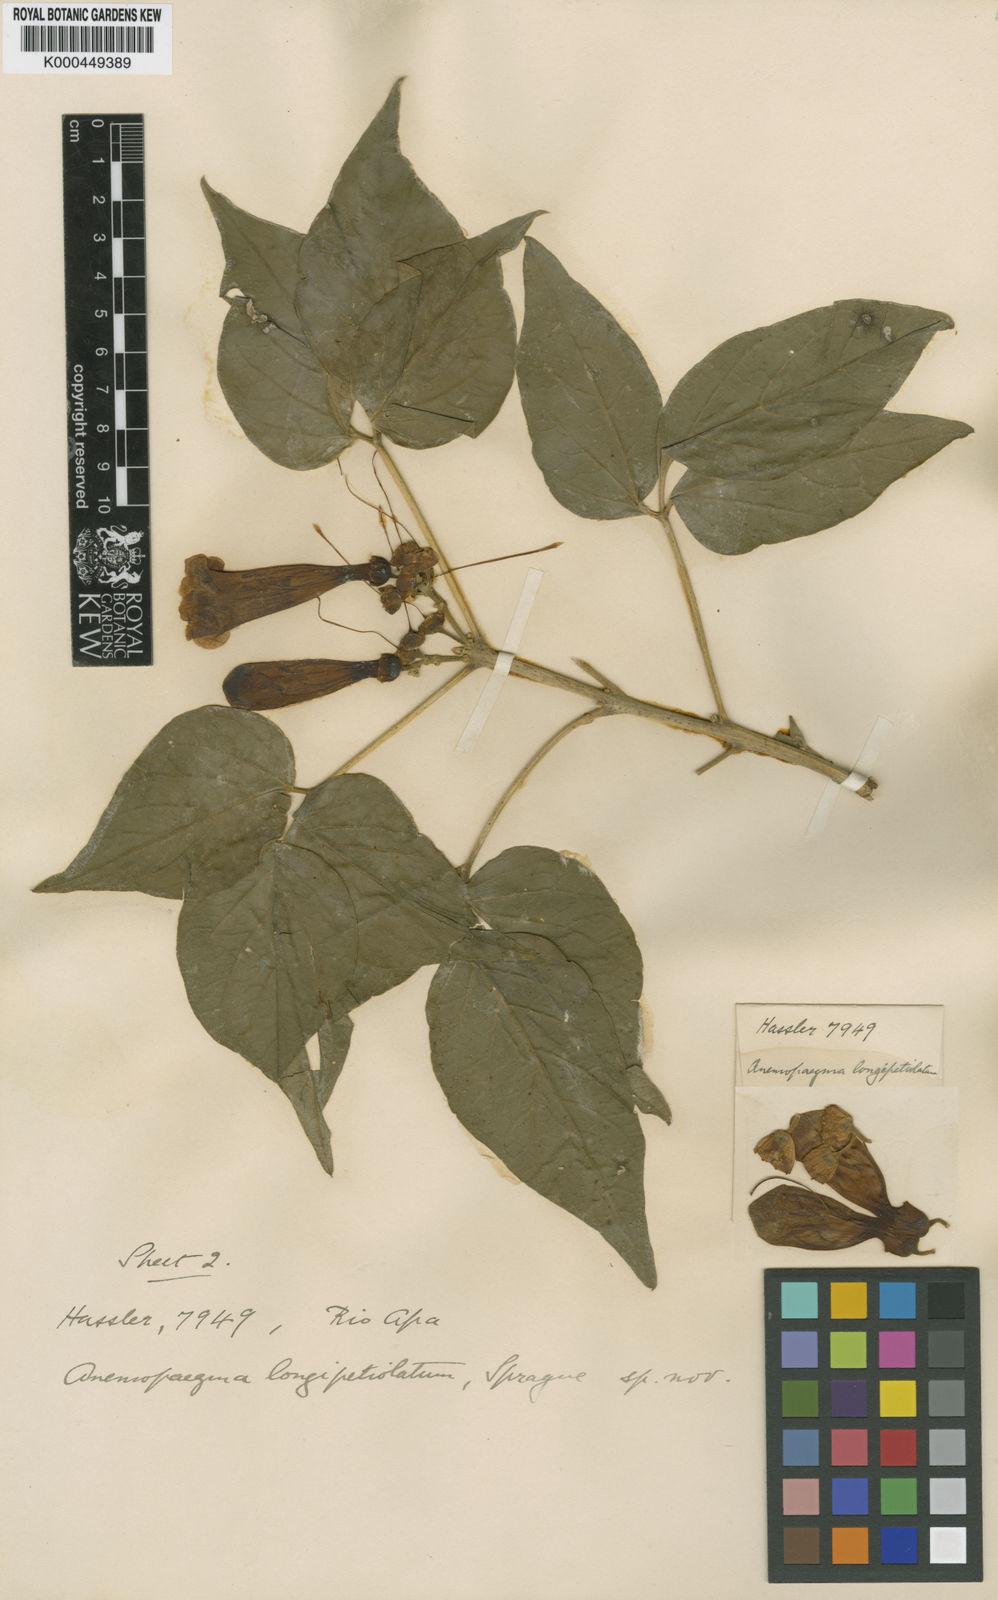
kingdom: Plantae
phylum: Tracheophyta
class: Magnoliopsida
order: Lamiales
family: Bignoniaceae
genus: Anemopaegma
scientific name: Anemopaegma longipetiolatum
